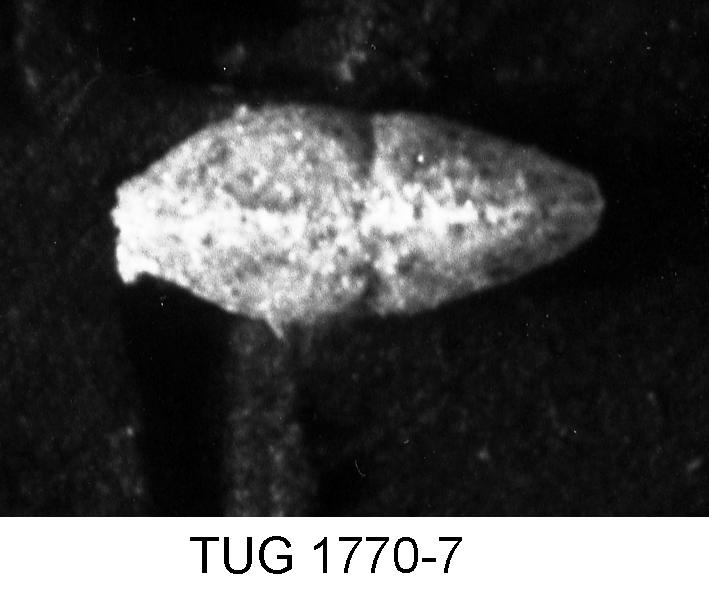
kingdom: Animalia
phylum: Arthropoda
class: Ostracoda
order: Platycopida
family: Kloedenellidae
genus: Kloedenella
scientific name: Kloedenella
